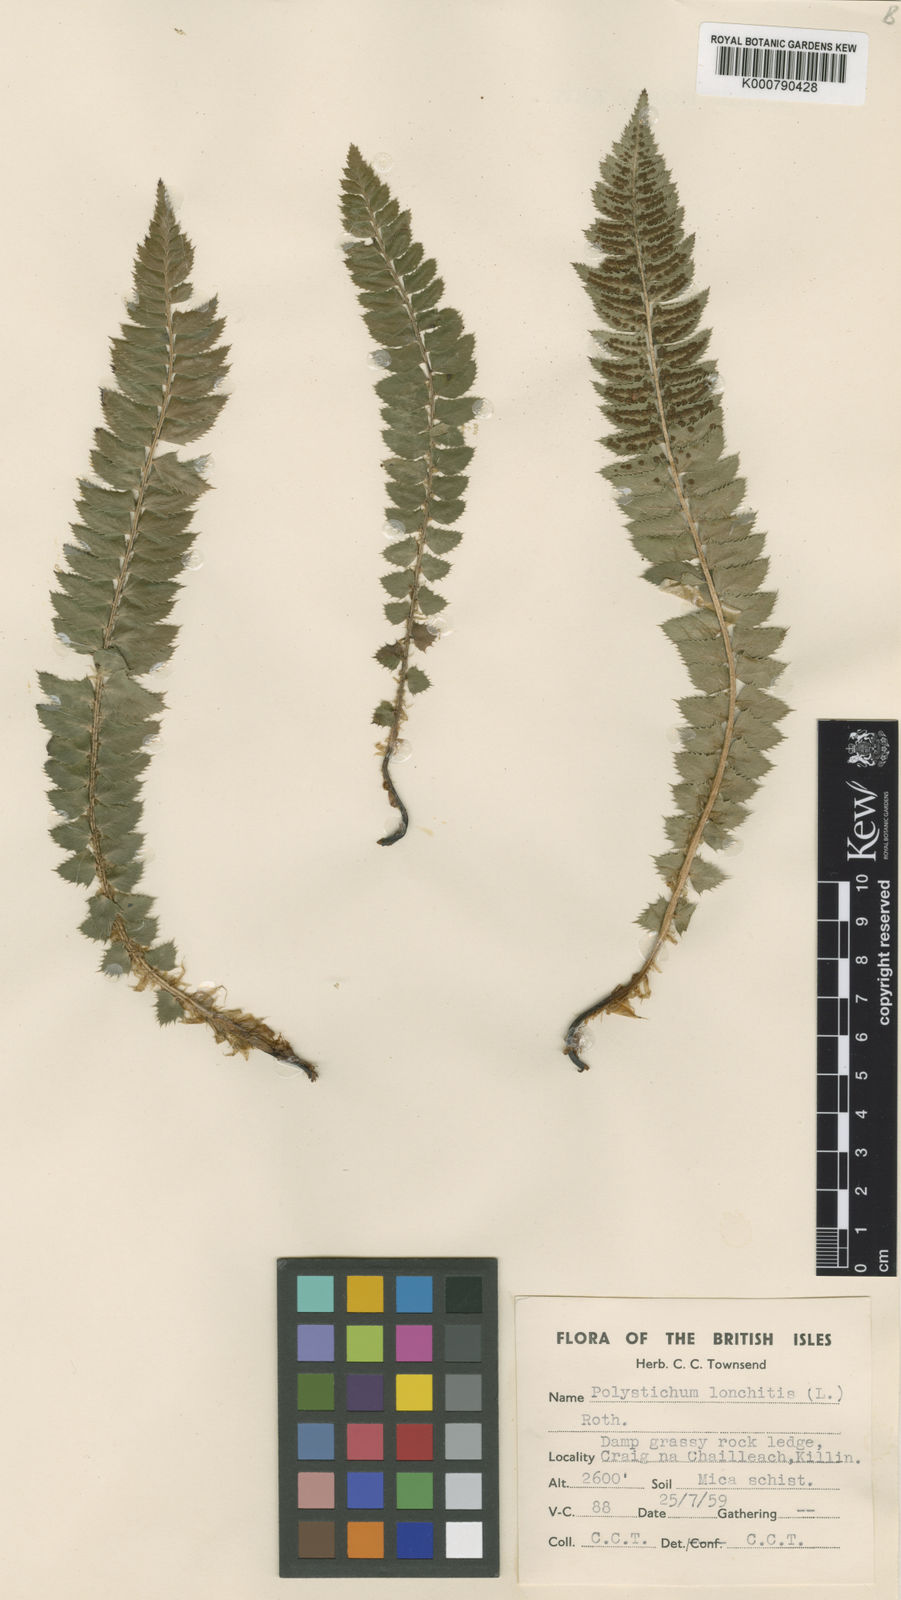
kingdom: Plantae
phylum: Tracheophyta
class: Polypodiopsida
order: Polypodiales
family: Dryopteridaceae
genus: Polystichum
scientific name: Polystichum
